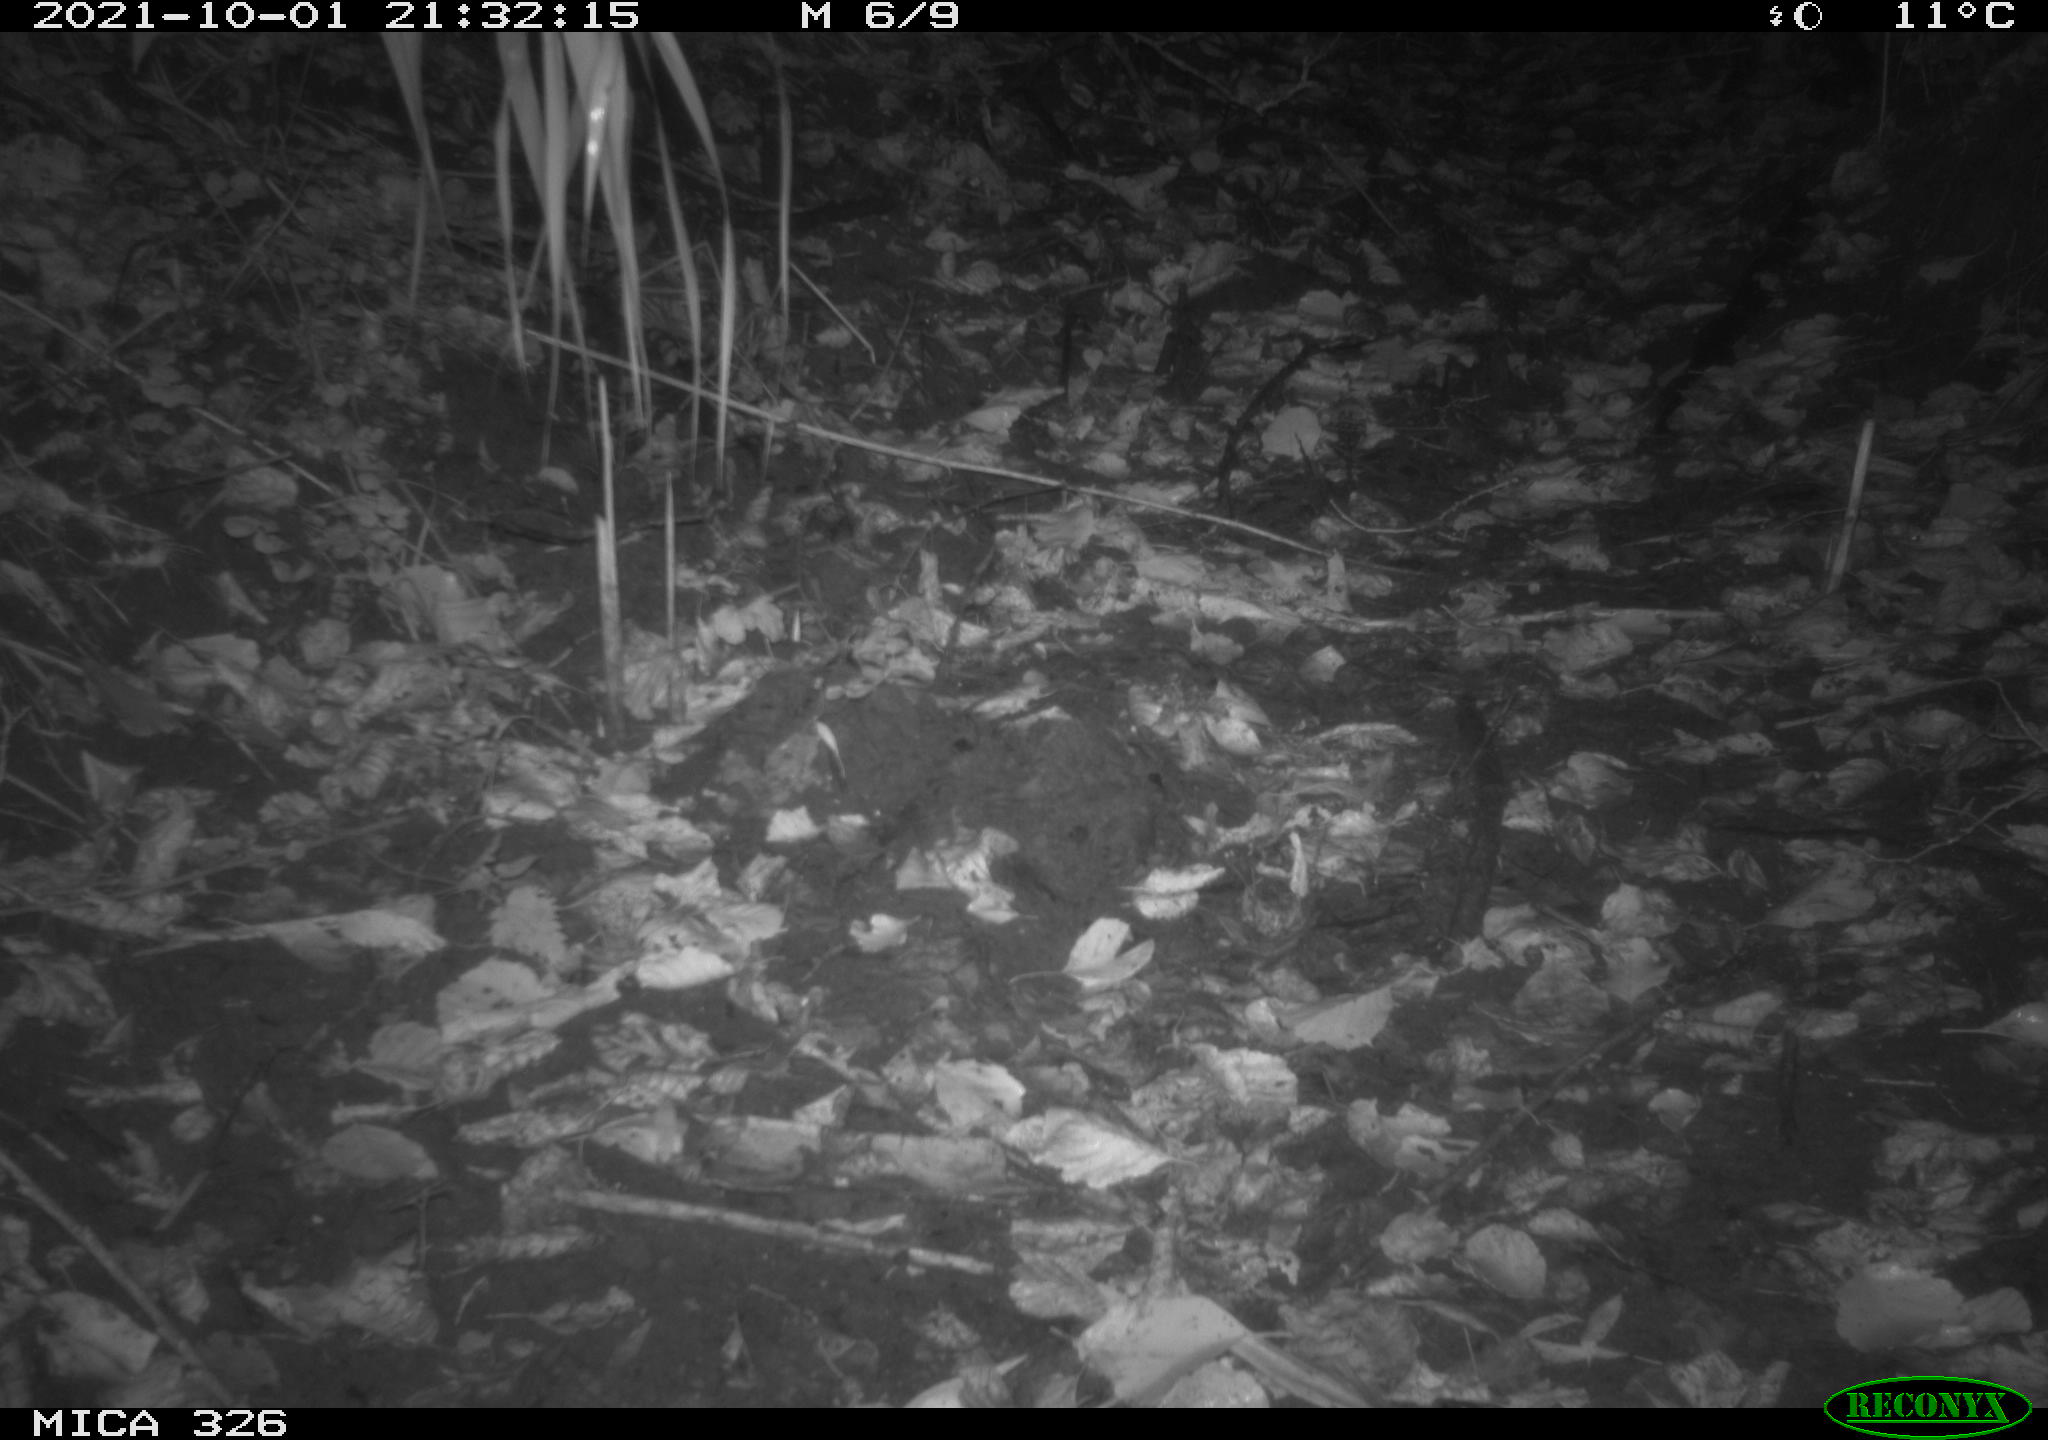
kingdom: Animalia
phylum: Chordata
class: Mammalia
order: Rodentia
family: Myocastoridae
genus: Myocastor
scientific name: Myocastor coypus
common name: Coypu
